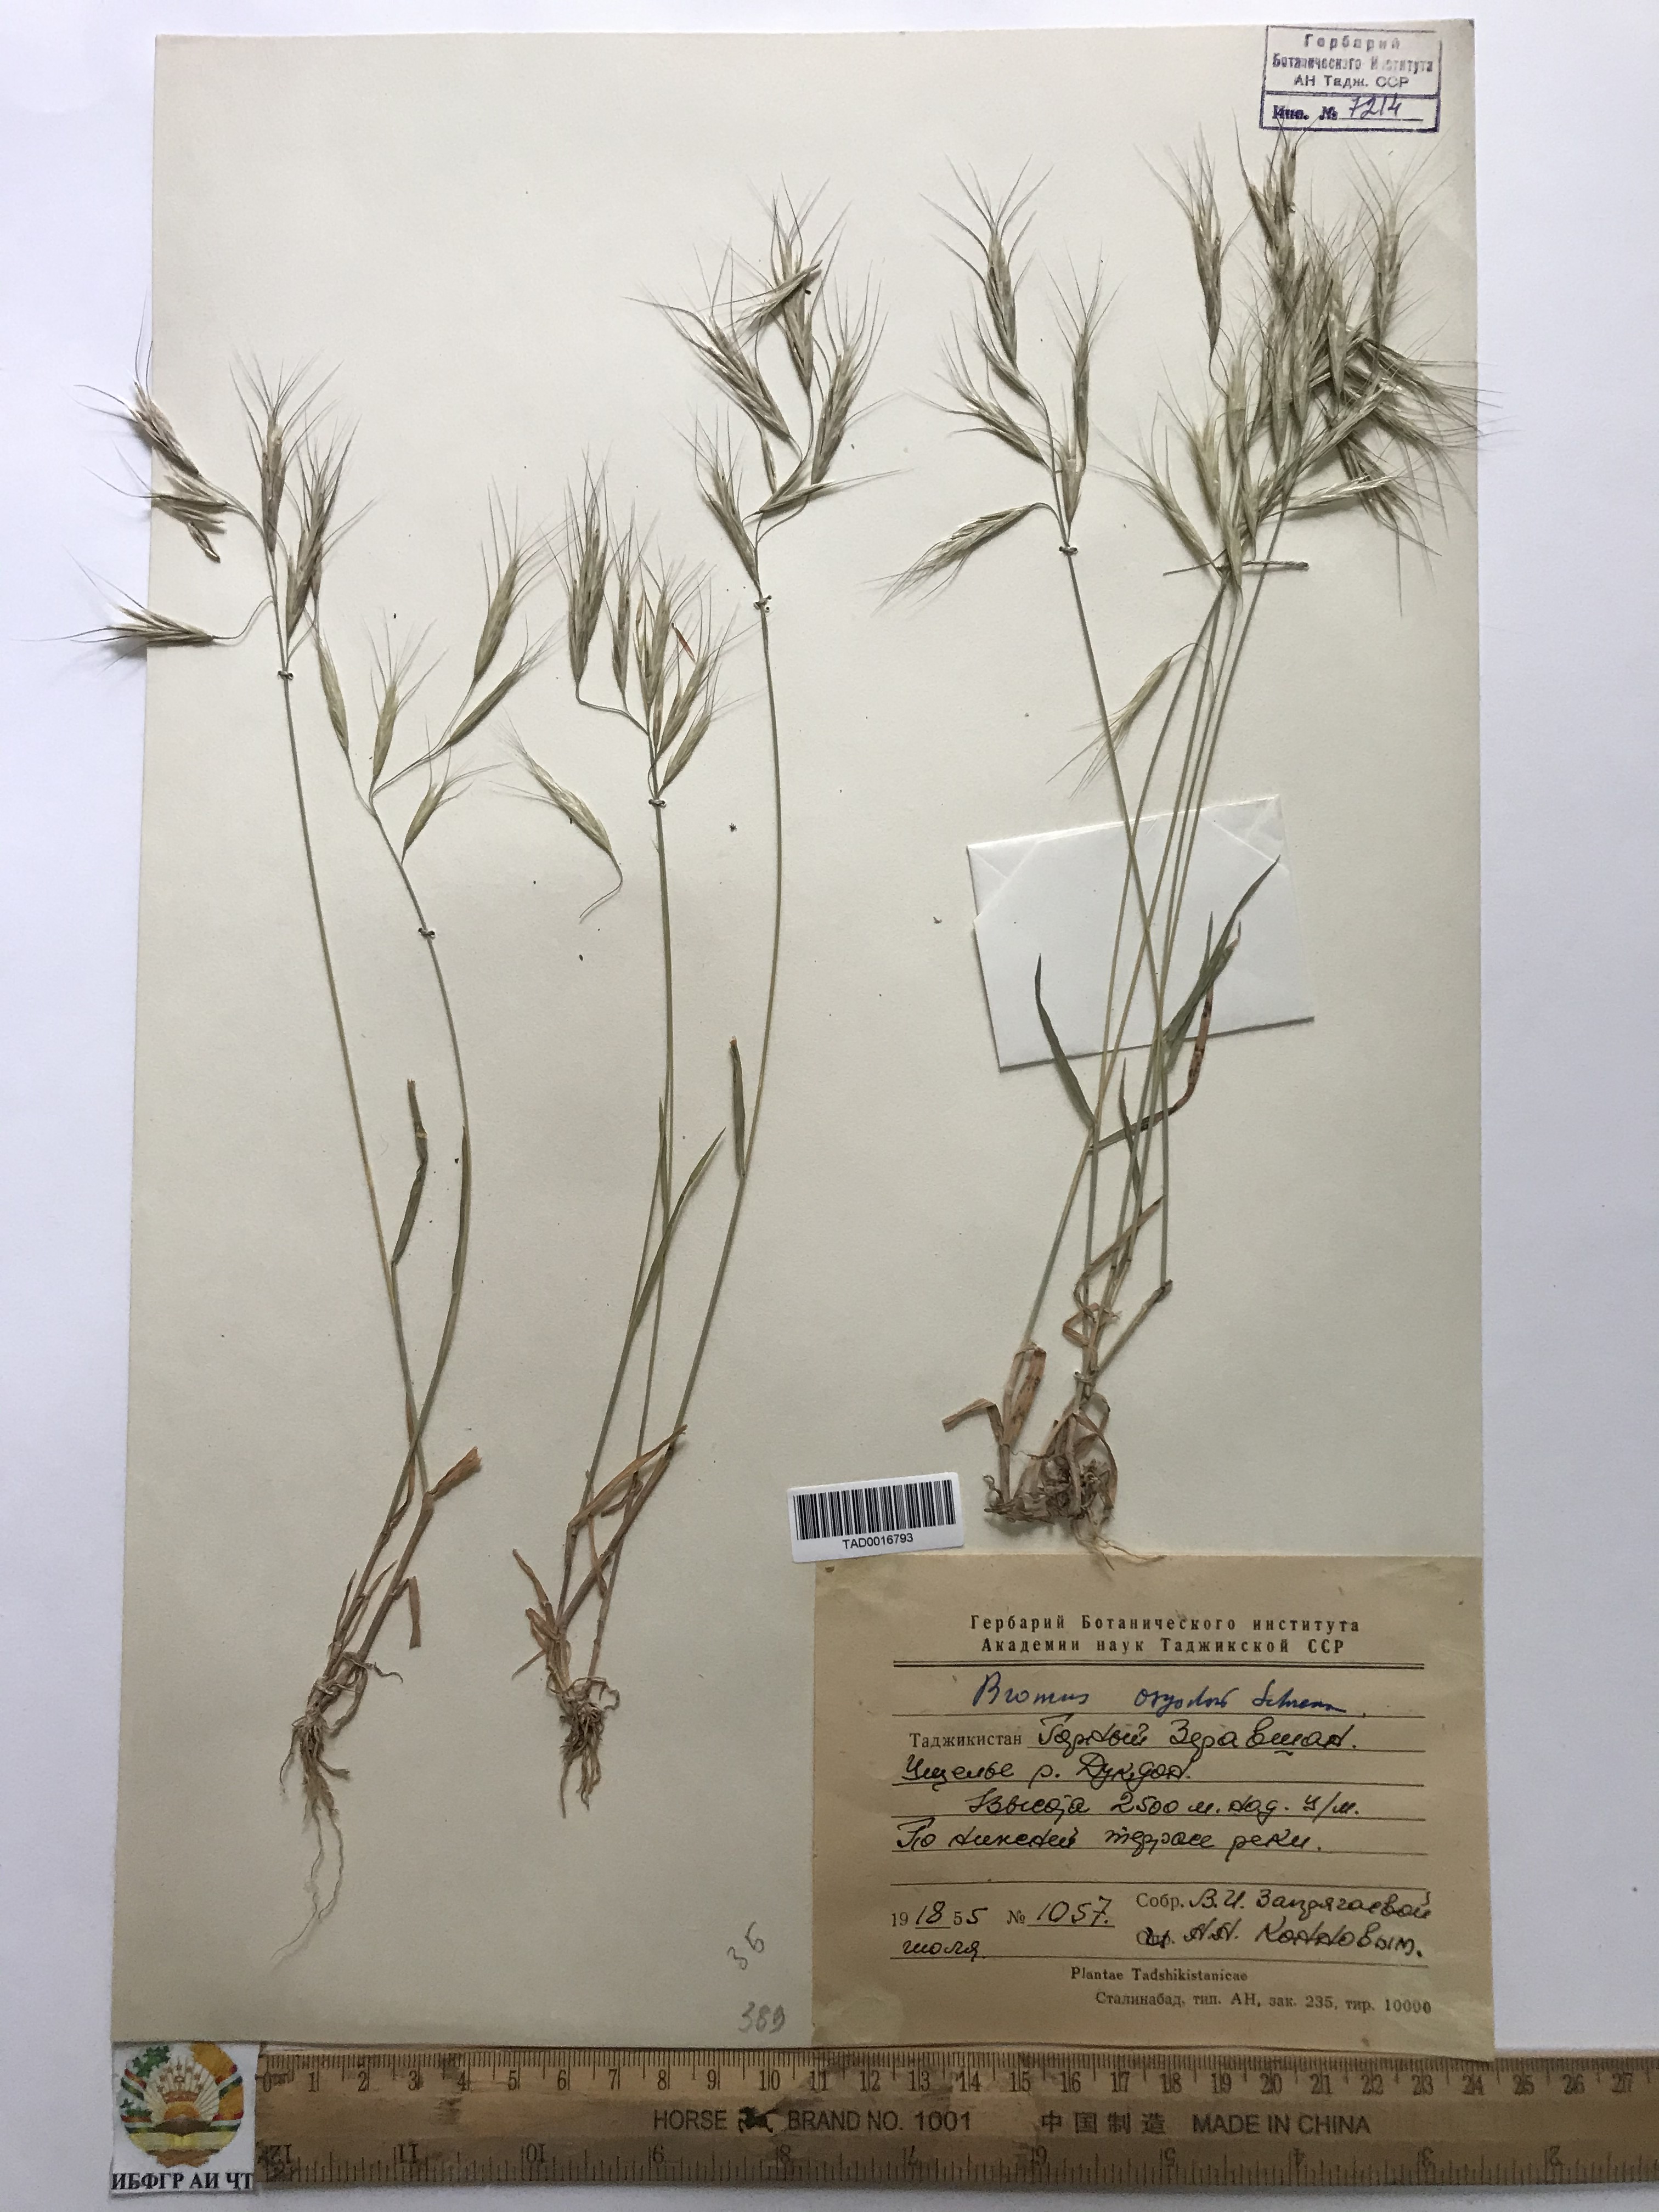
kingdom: Plantae
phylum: Tracheophyta
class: Liliopsida
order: Poales
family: Poaceae
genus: Bromus
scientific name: Bromus oxyodon
